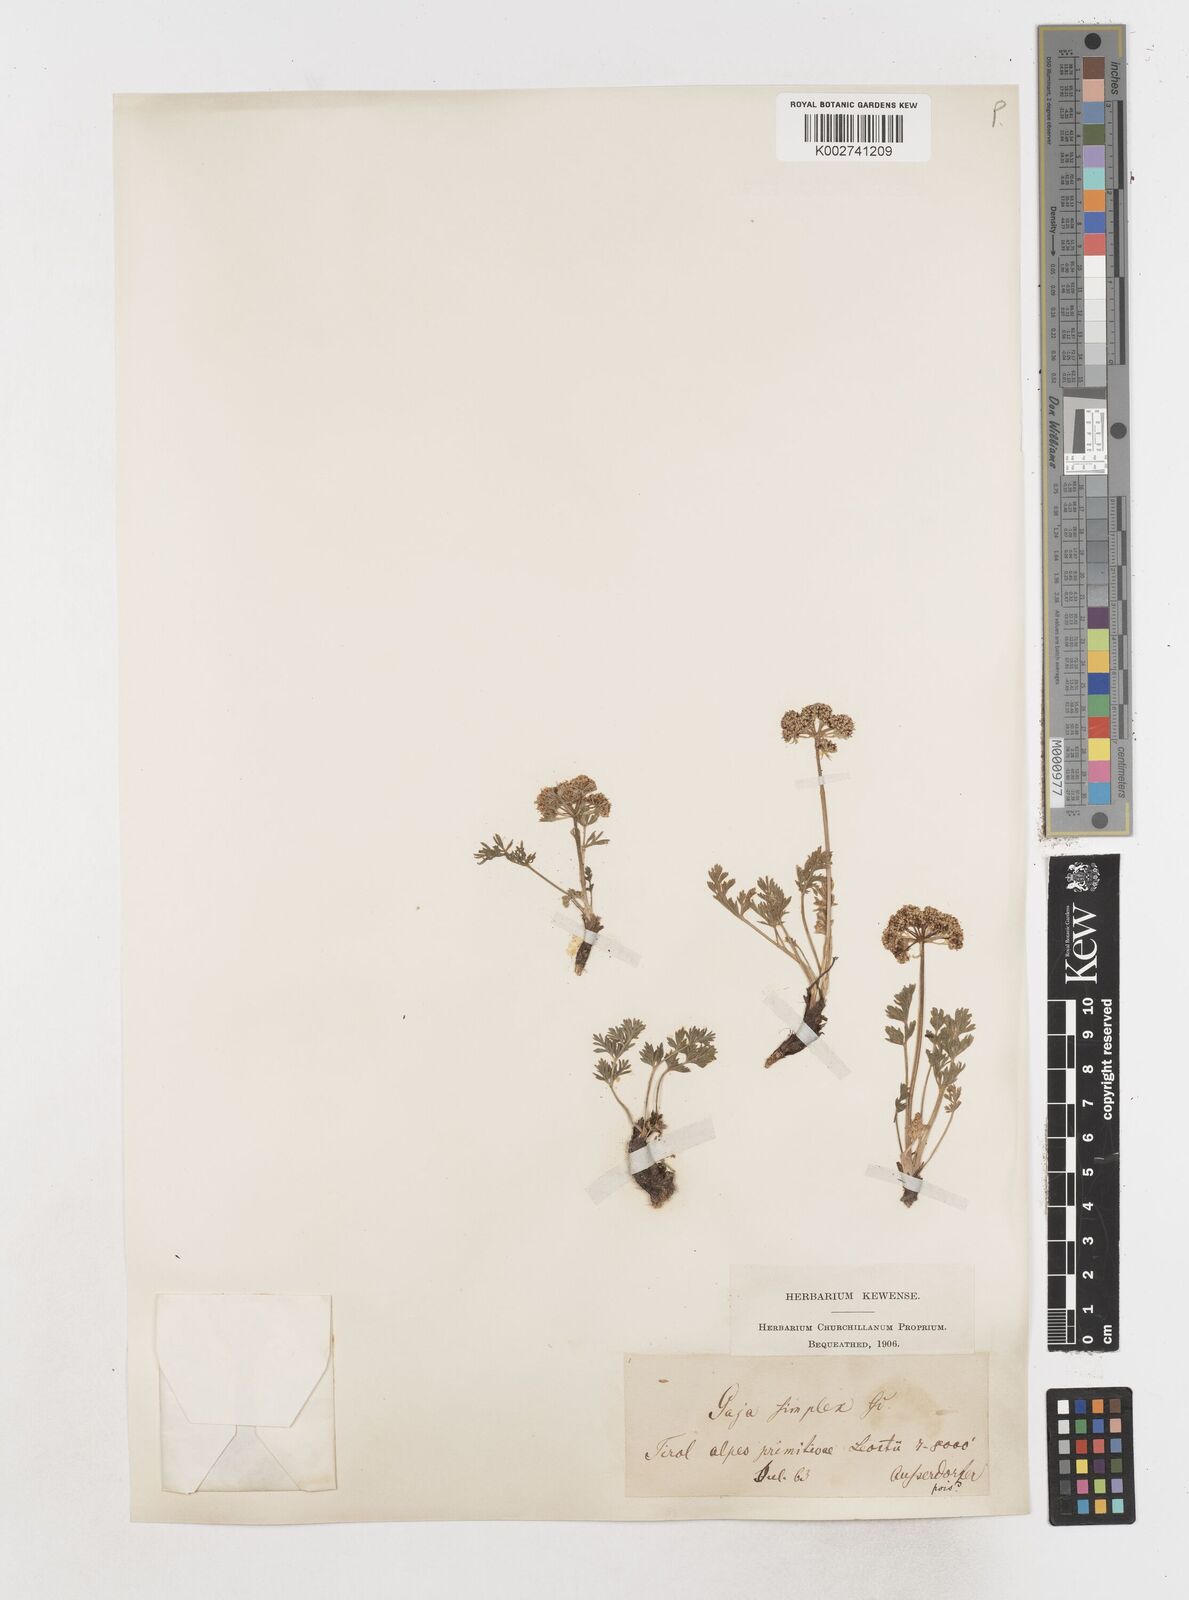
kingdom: Plantae
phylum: Tracheophyta
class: Magnoliopsida
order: Apiales
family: Apiaceae
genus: Pachypleurum
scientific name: Pachypleurum mutellinoides
